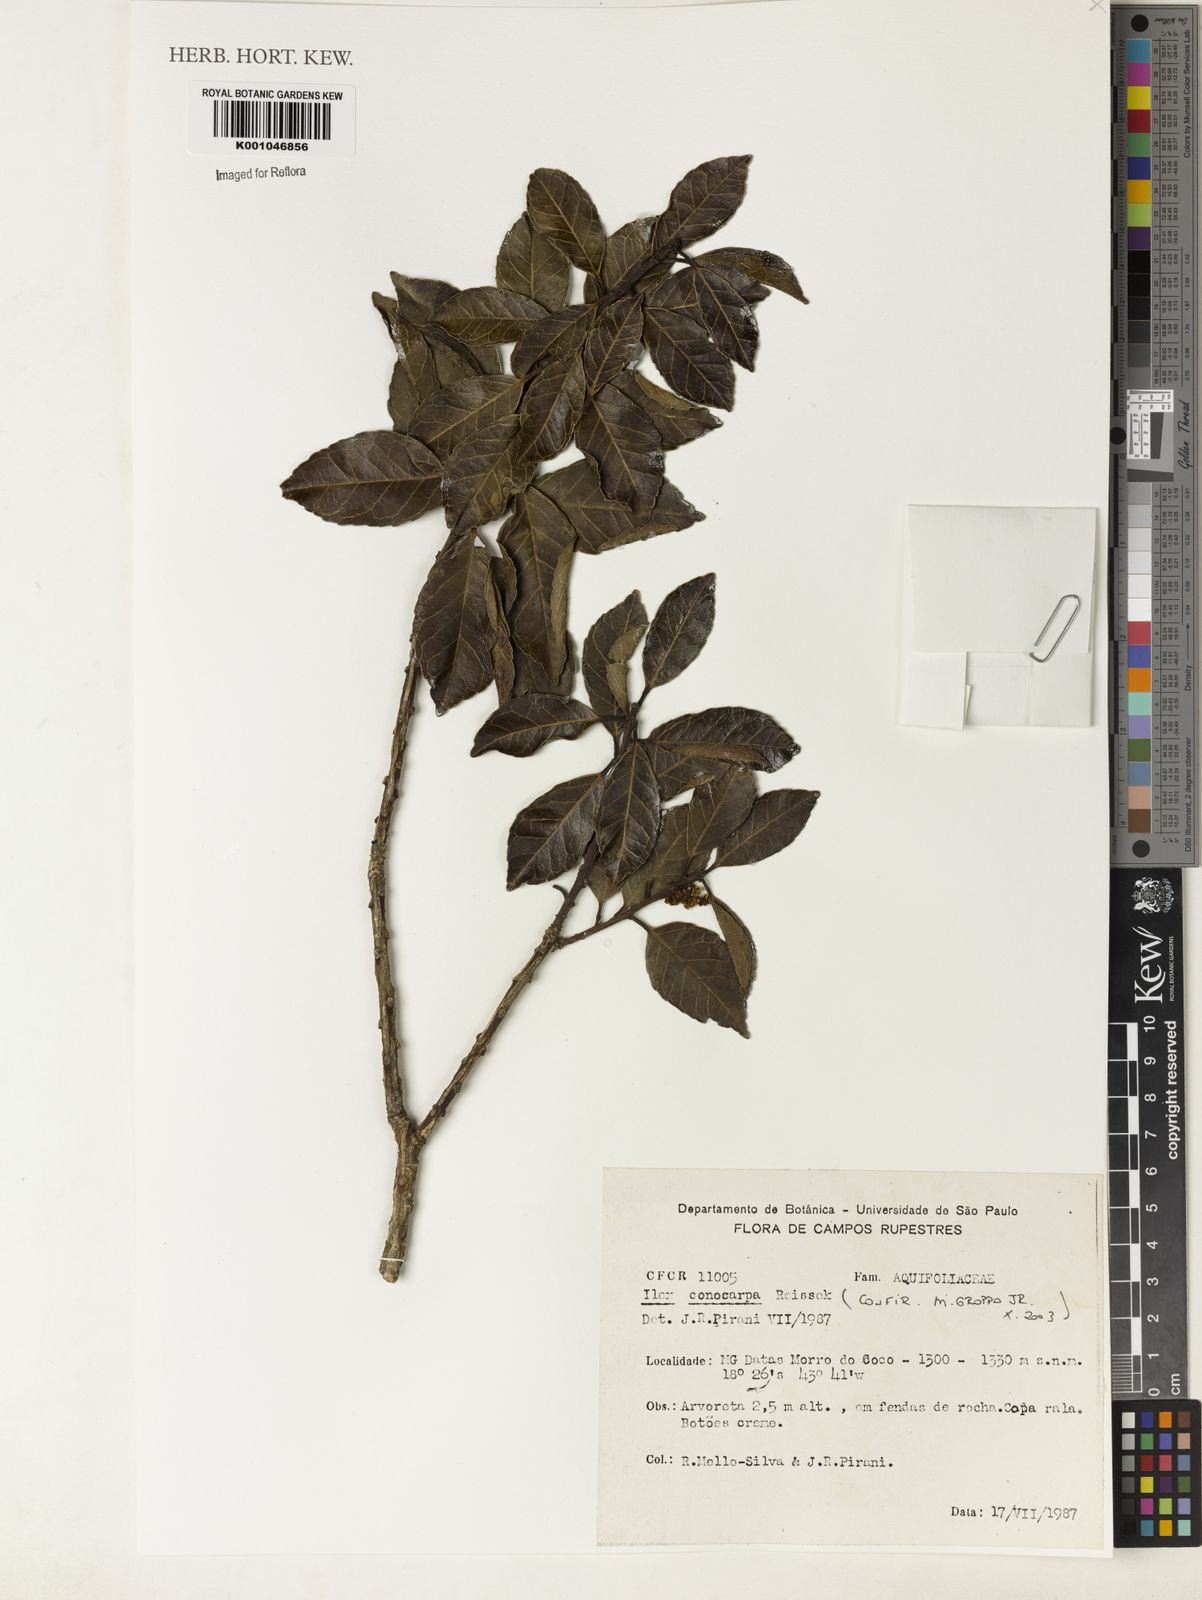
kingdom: Plantae
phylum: Tracheophyta
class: Magnoliopsida
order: Aquifoliales
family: Aquifoliaceae
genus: Ilex
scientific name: Ilex conocarpa
